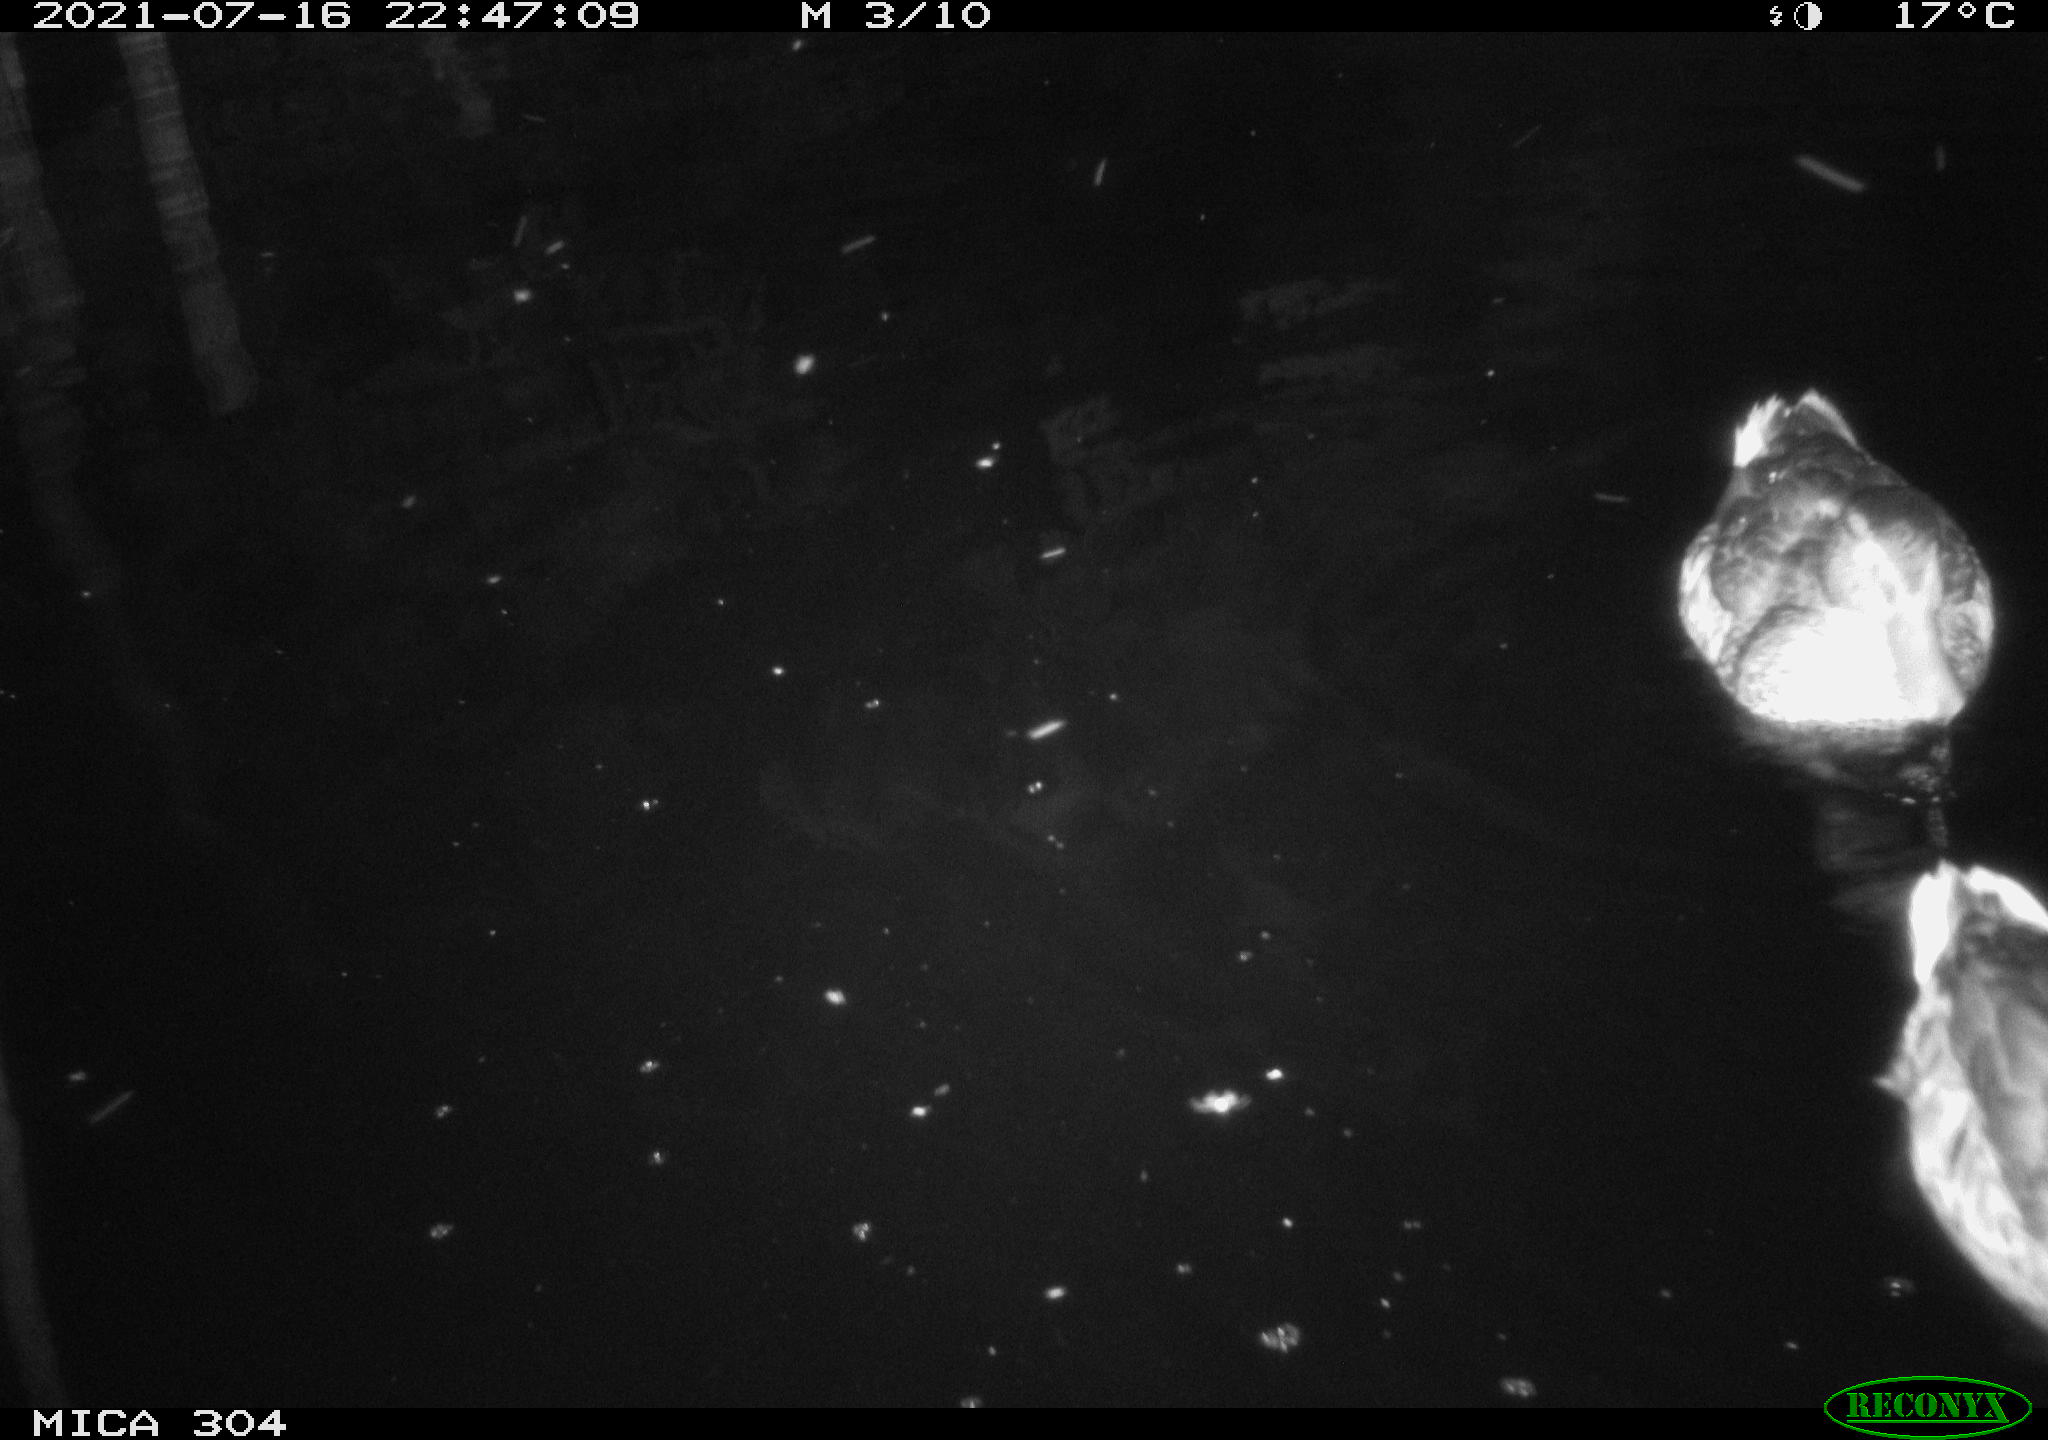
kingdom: Animalia
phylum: Chordata
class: Aves
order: Anseriformes
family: Anatidae
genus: Anas
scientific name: Anas platyrhynchos
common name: Mallard
